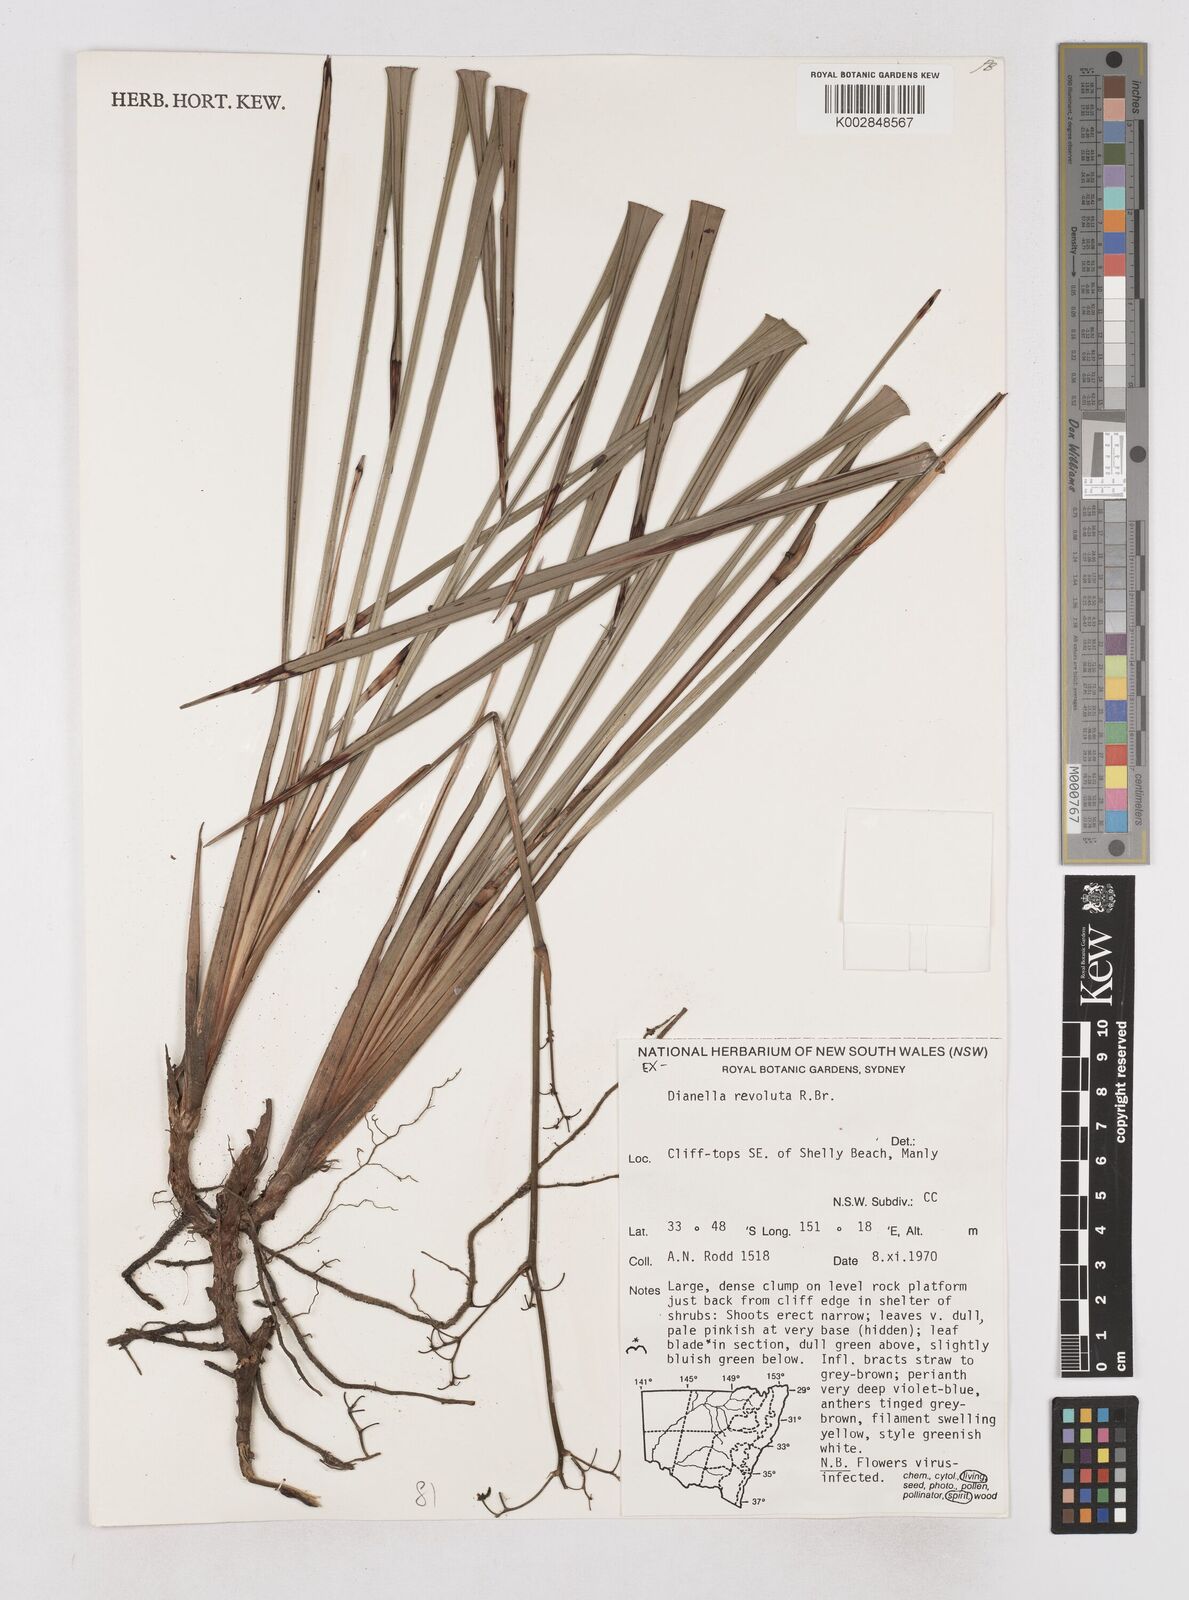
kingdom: Plantae
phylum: Tracheophyta
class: Liliopsida
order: Asparagales
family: Asphodelaceae
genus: Dianella
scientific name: Dianella revoluta
